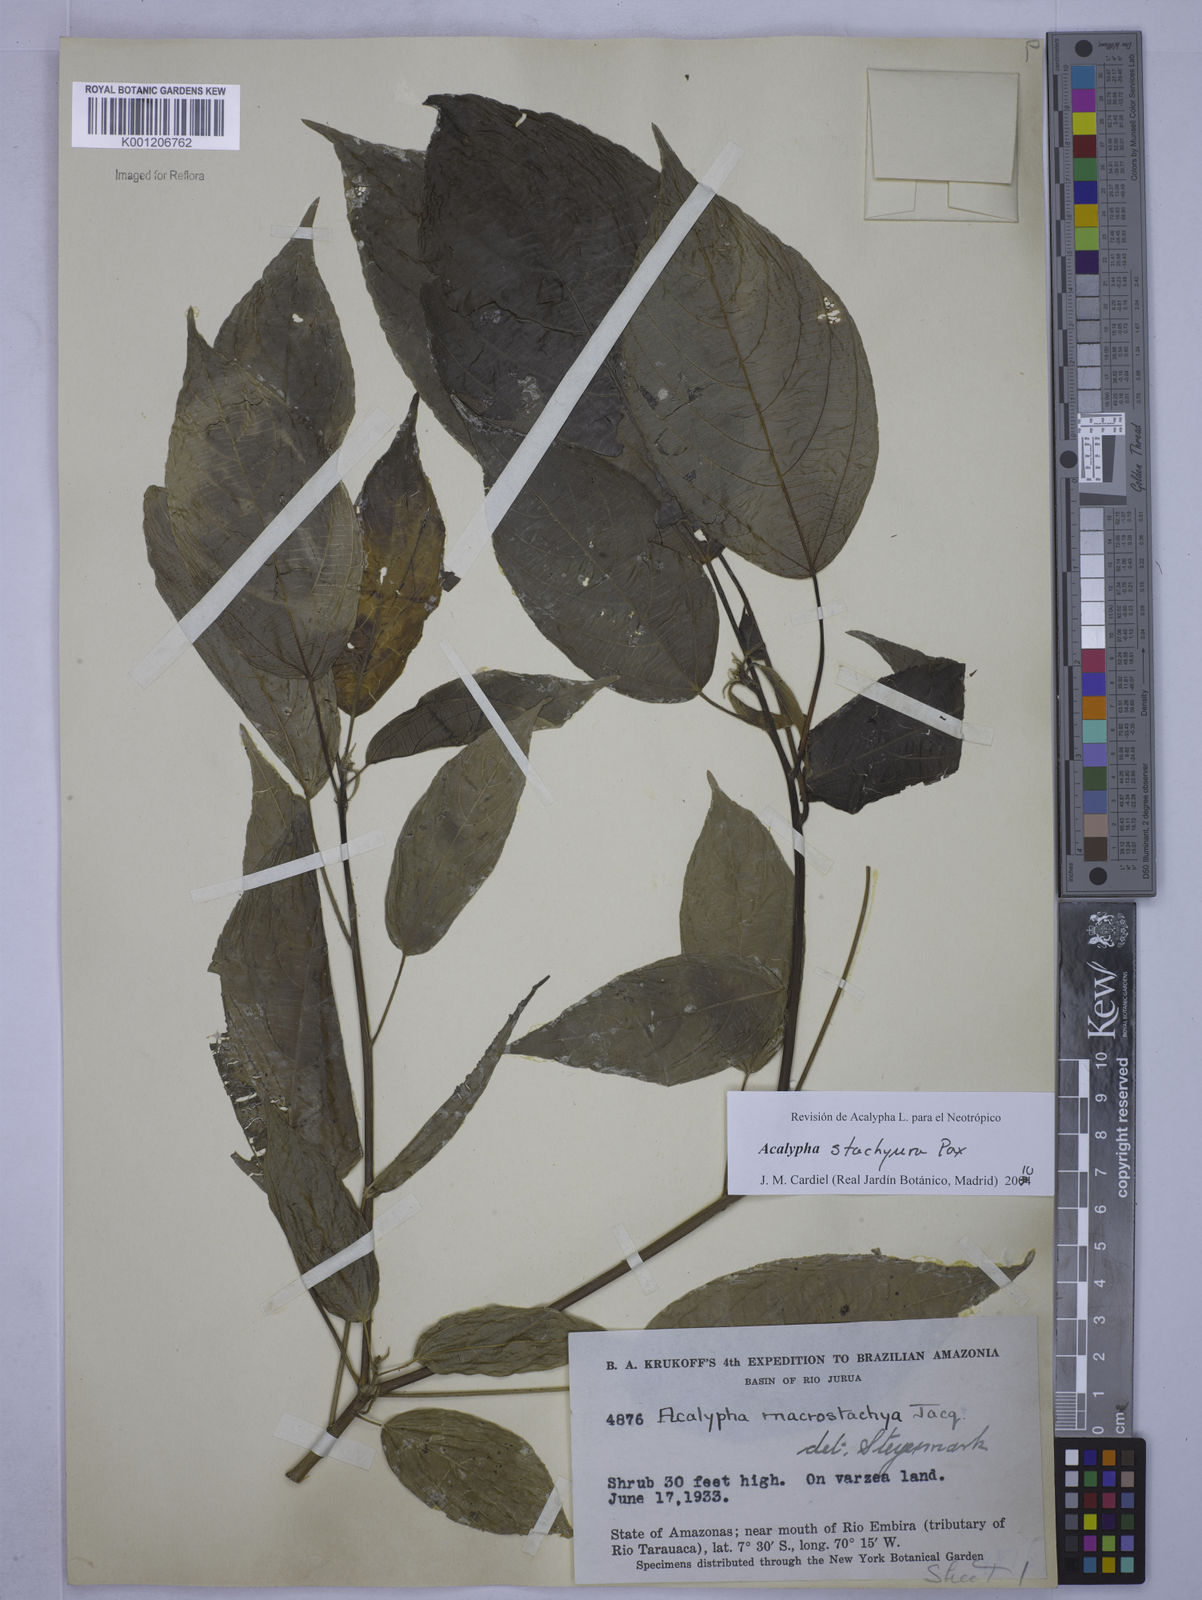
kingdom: Plantae
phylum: Tracheophyta
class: Magnoliopsida
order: Malpighiales
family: Euphorbiaceae
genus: Acalypha
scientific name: Acalypha stachyura
